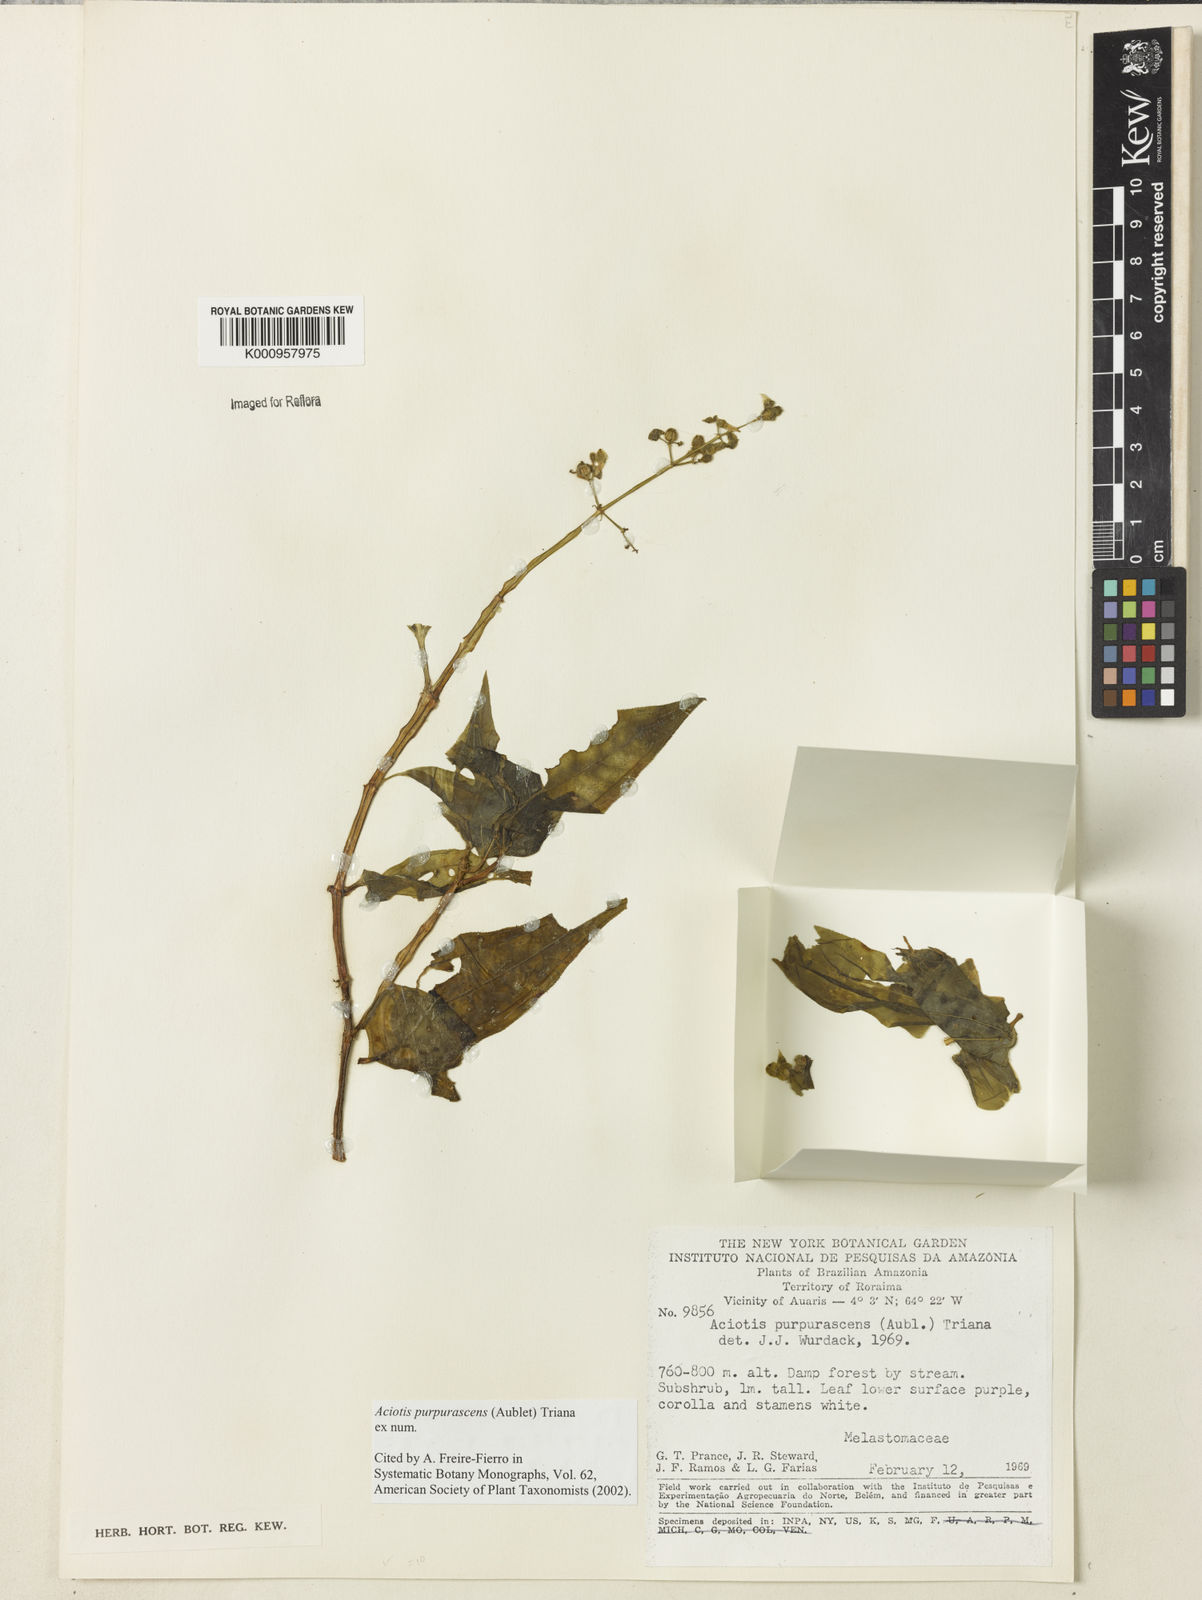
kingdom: Plantae
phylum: Tracheophyta
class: Magnoliopsida
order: Myrtales
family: Melastomataceae
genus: Aciotis
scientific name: Aciotis purpurascens
